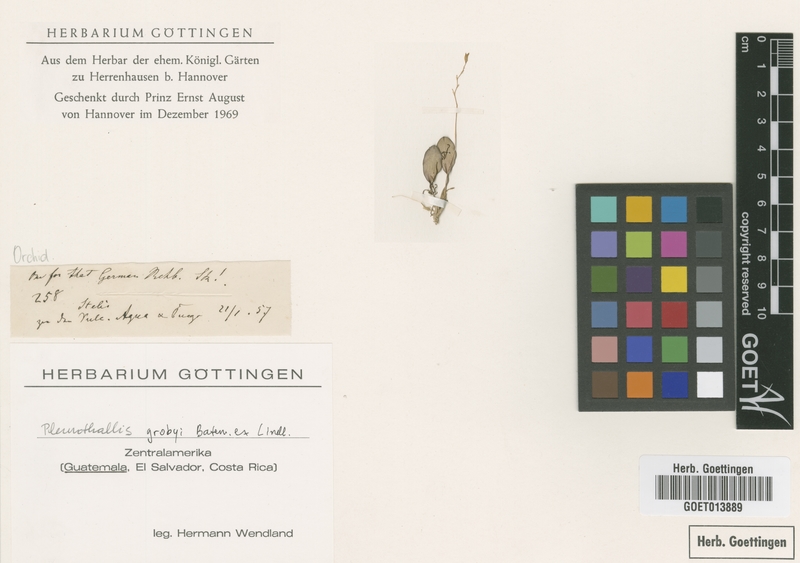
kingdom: Plantae
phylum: Tracheophyta
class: Liliopsida
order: Asparagales
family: Orchidaceae
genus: Specklinia
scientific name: Specklinia picta
